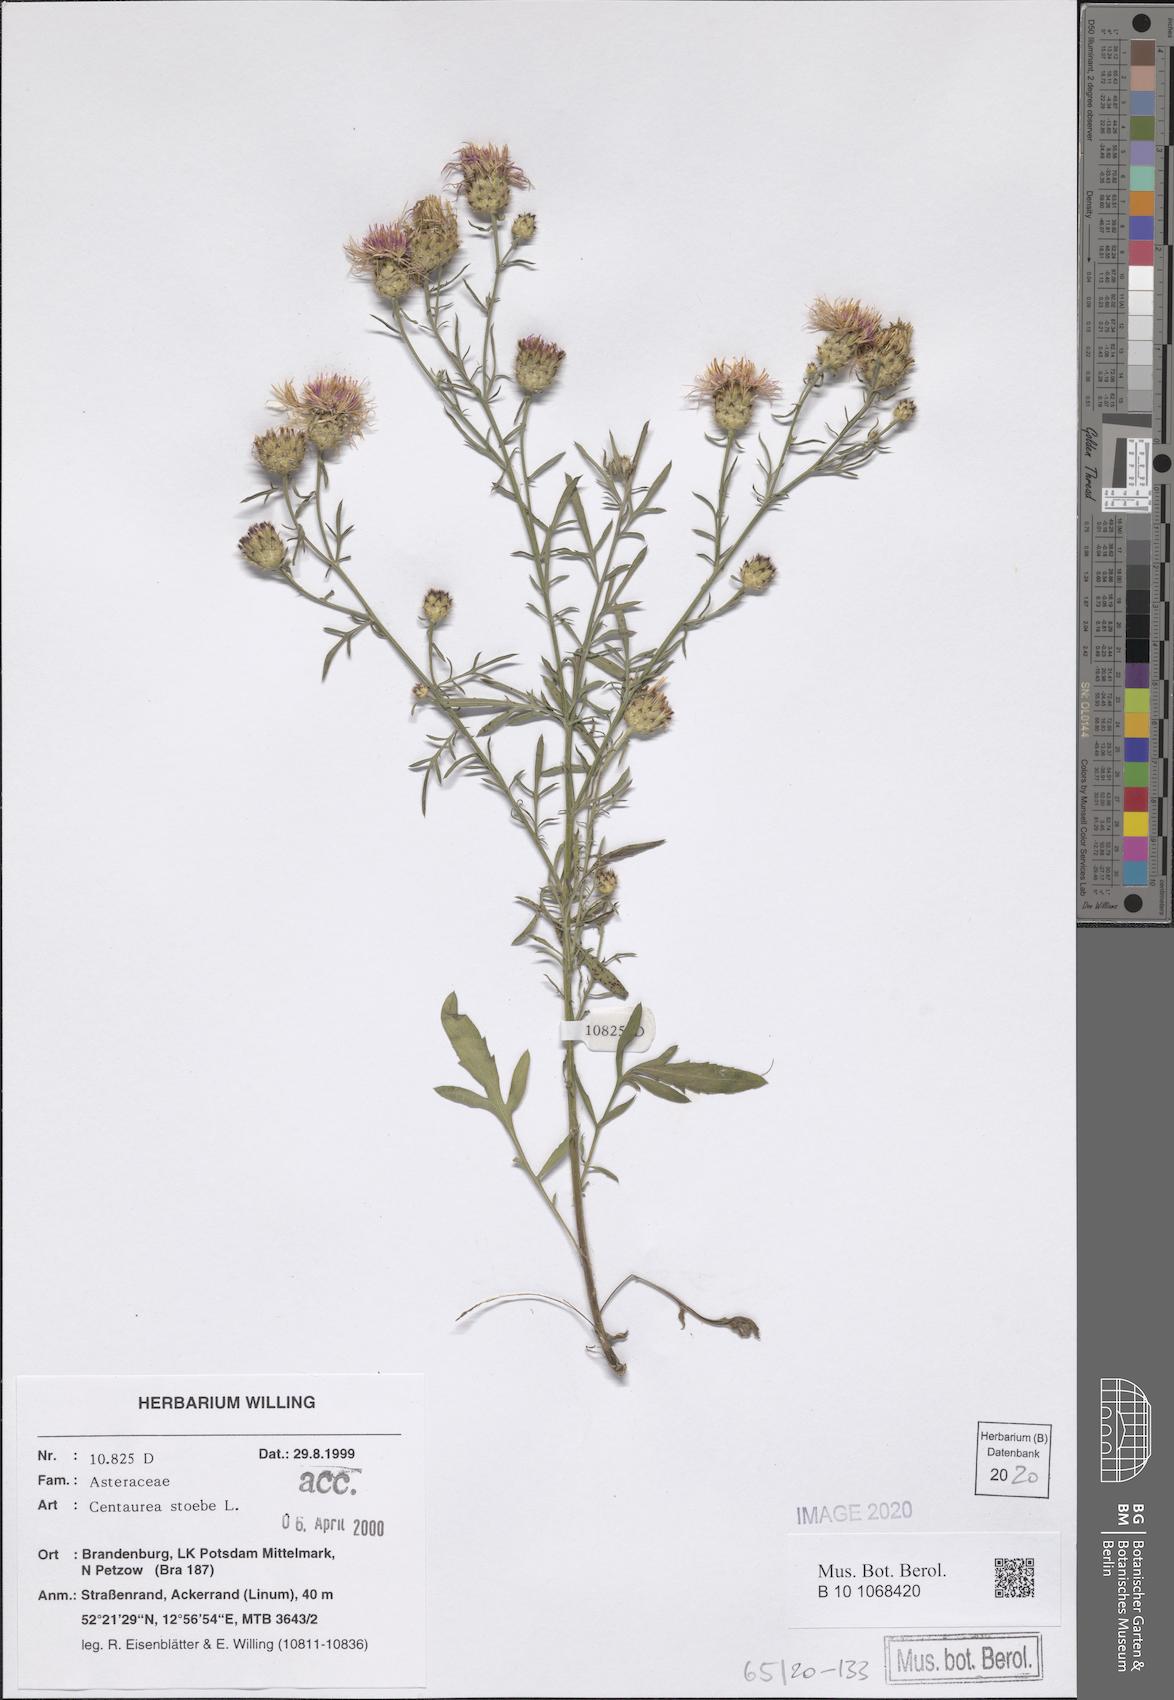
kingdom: Plantae
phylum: Tracheophyta
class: Magnoliopsida
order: Asterales
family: Asteraceae
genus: Centaurea
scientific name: Centaurea stoebe
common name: Spotted knapweed
